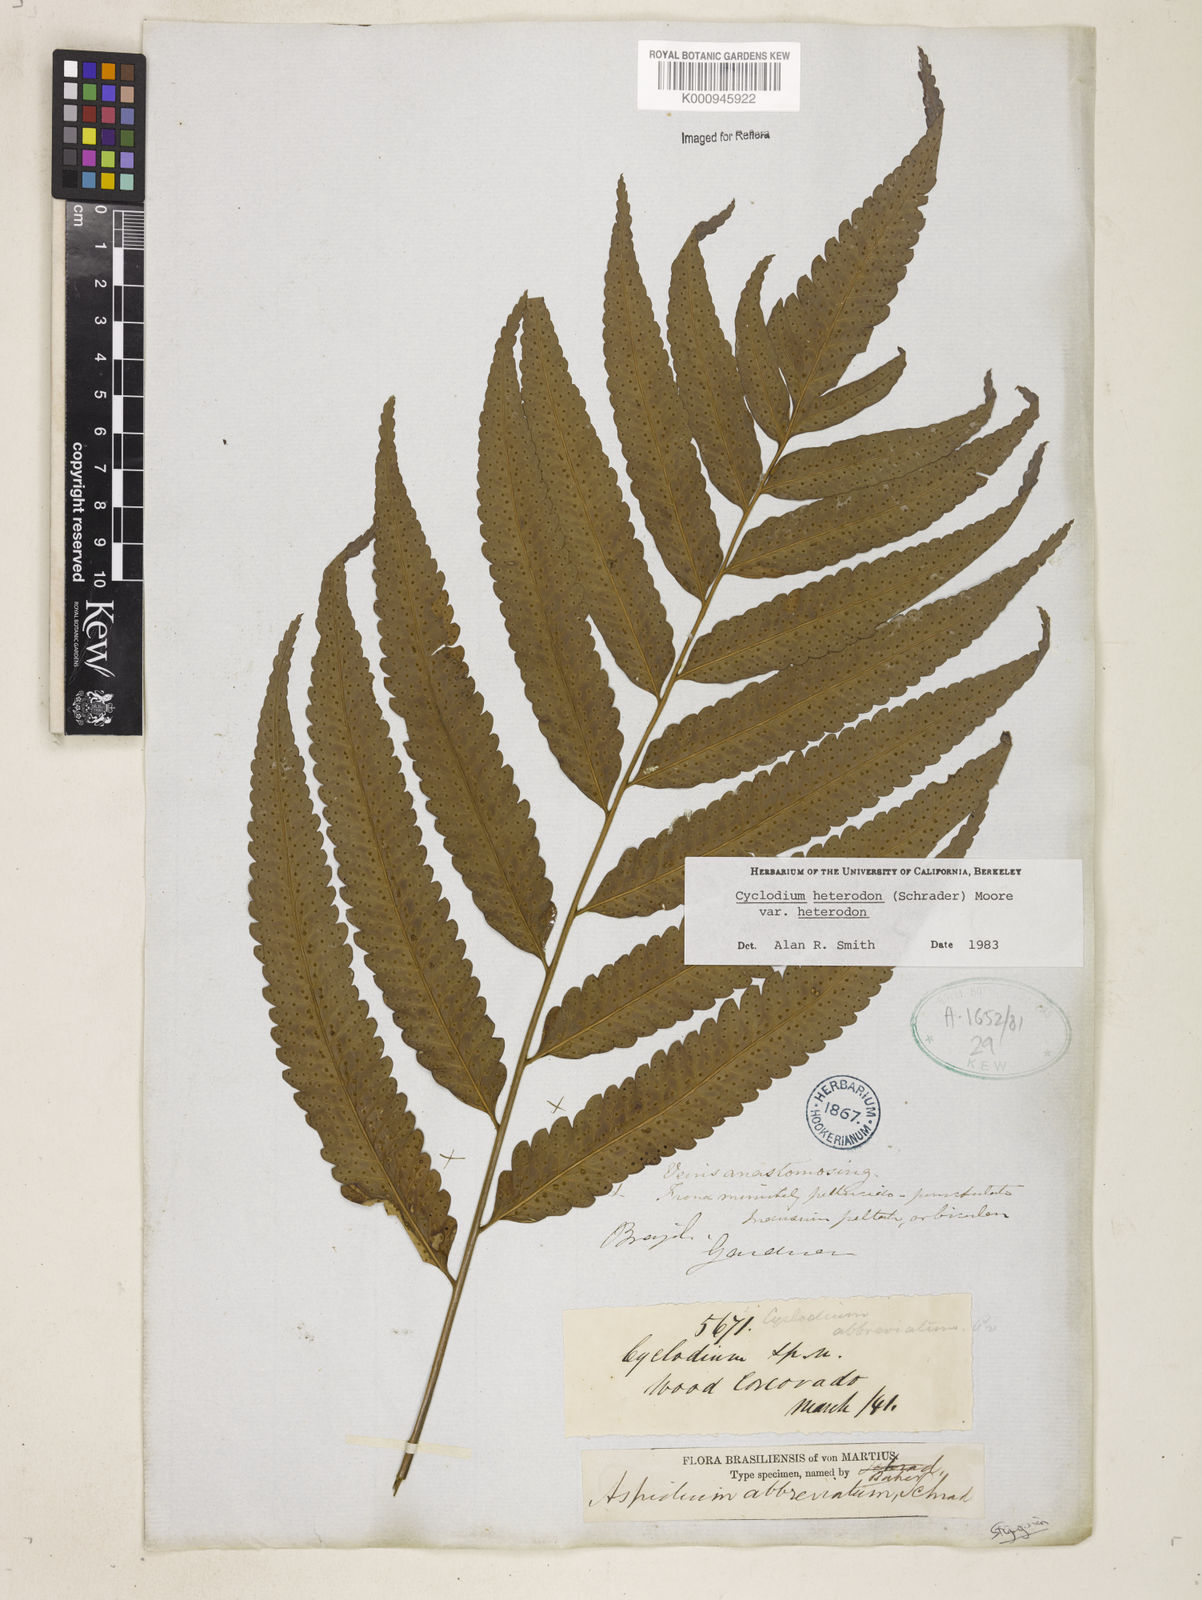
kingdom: Plantae
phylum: Tracheophyta
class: Polypodiopsida
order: Polypodiales
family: Dryopteridaceae
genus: Cyclodium
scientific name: Cyclodium heterodon
